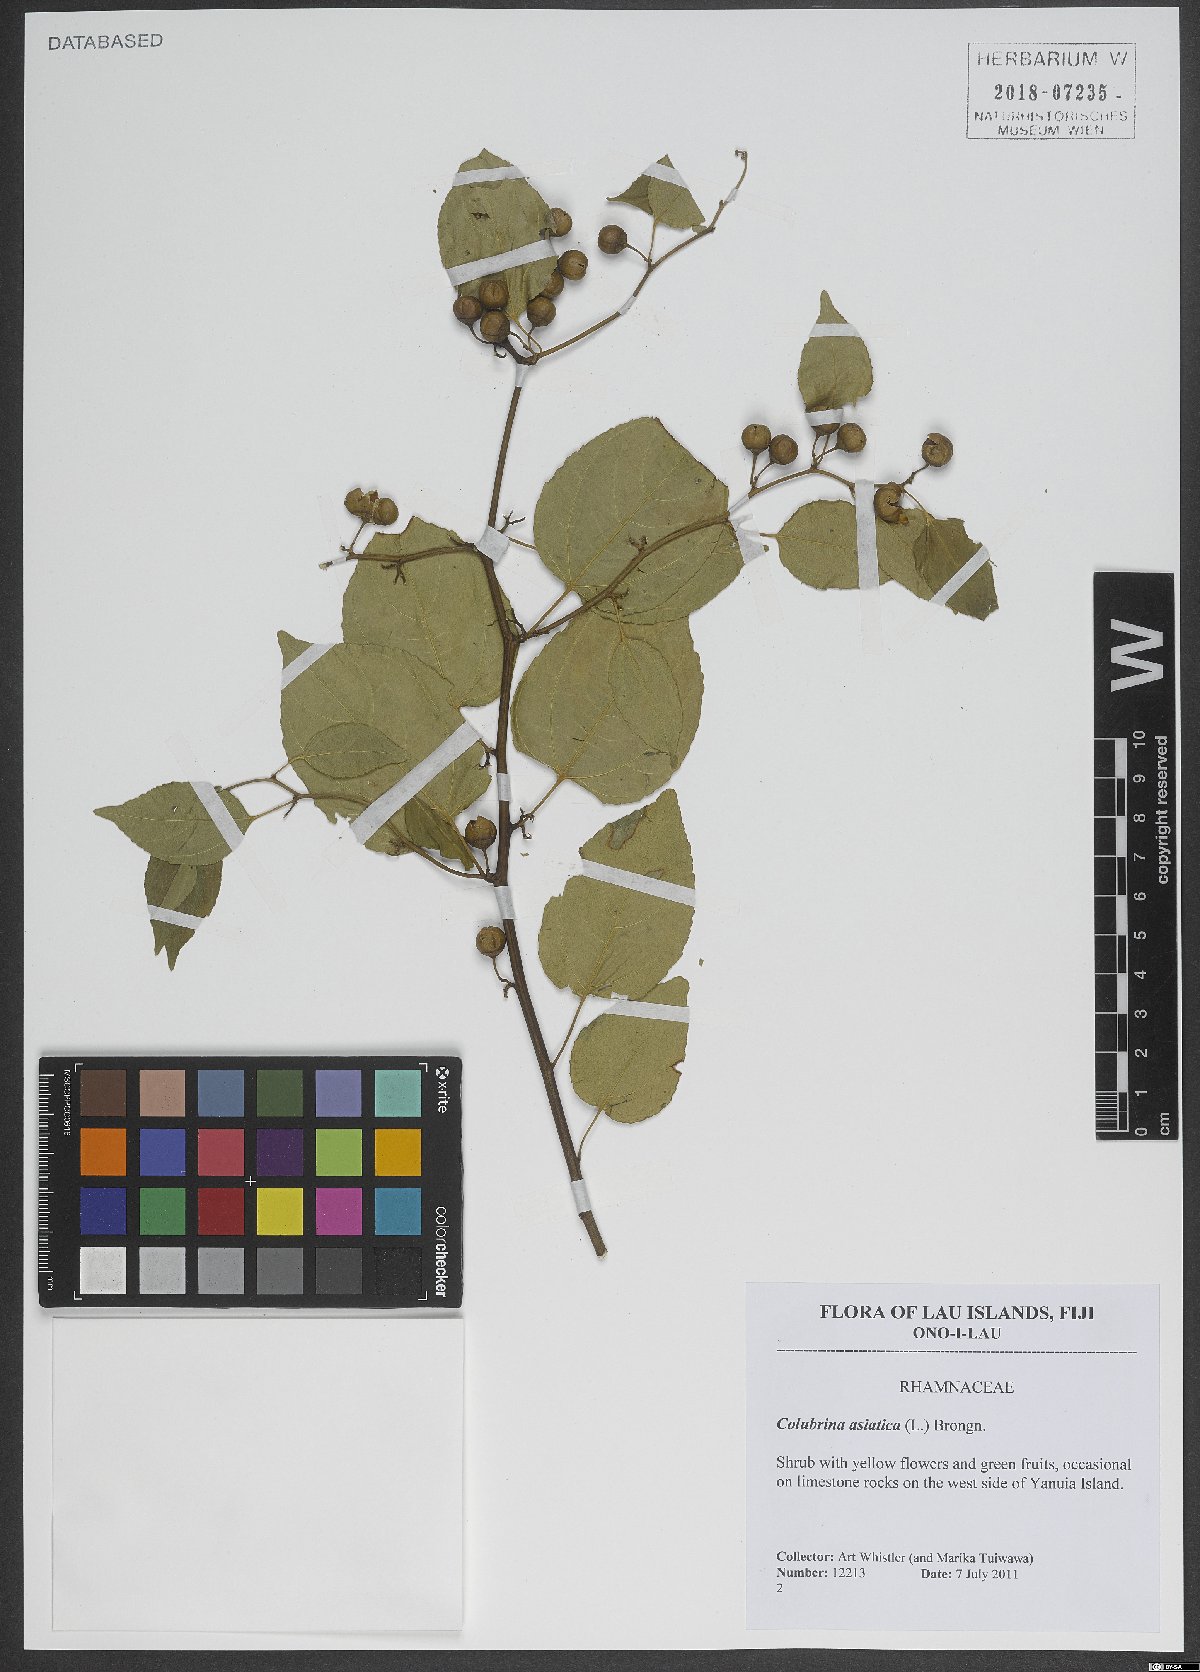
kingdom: Plantae
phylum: Tracheophyta
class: Magnoliopsida
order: Rosales
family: Rhamnaceae
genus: Colubrina
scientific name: Colubrina asiatica
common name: Asian nakedwood
